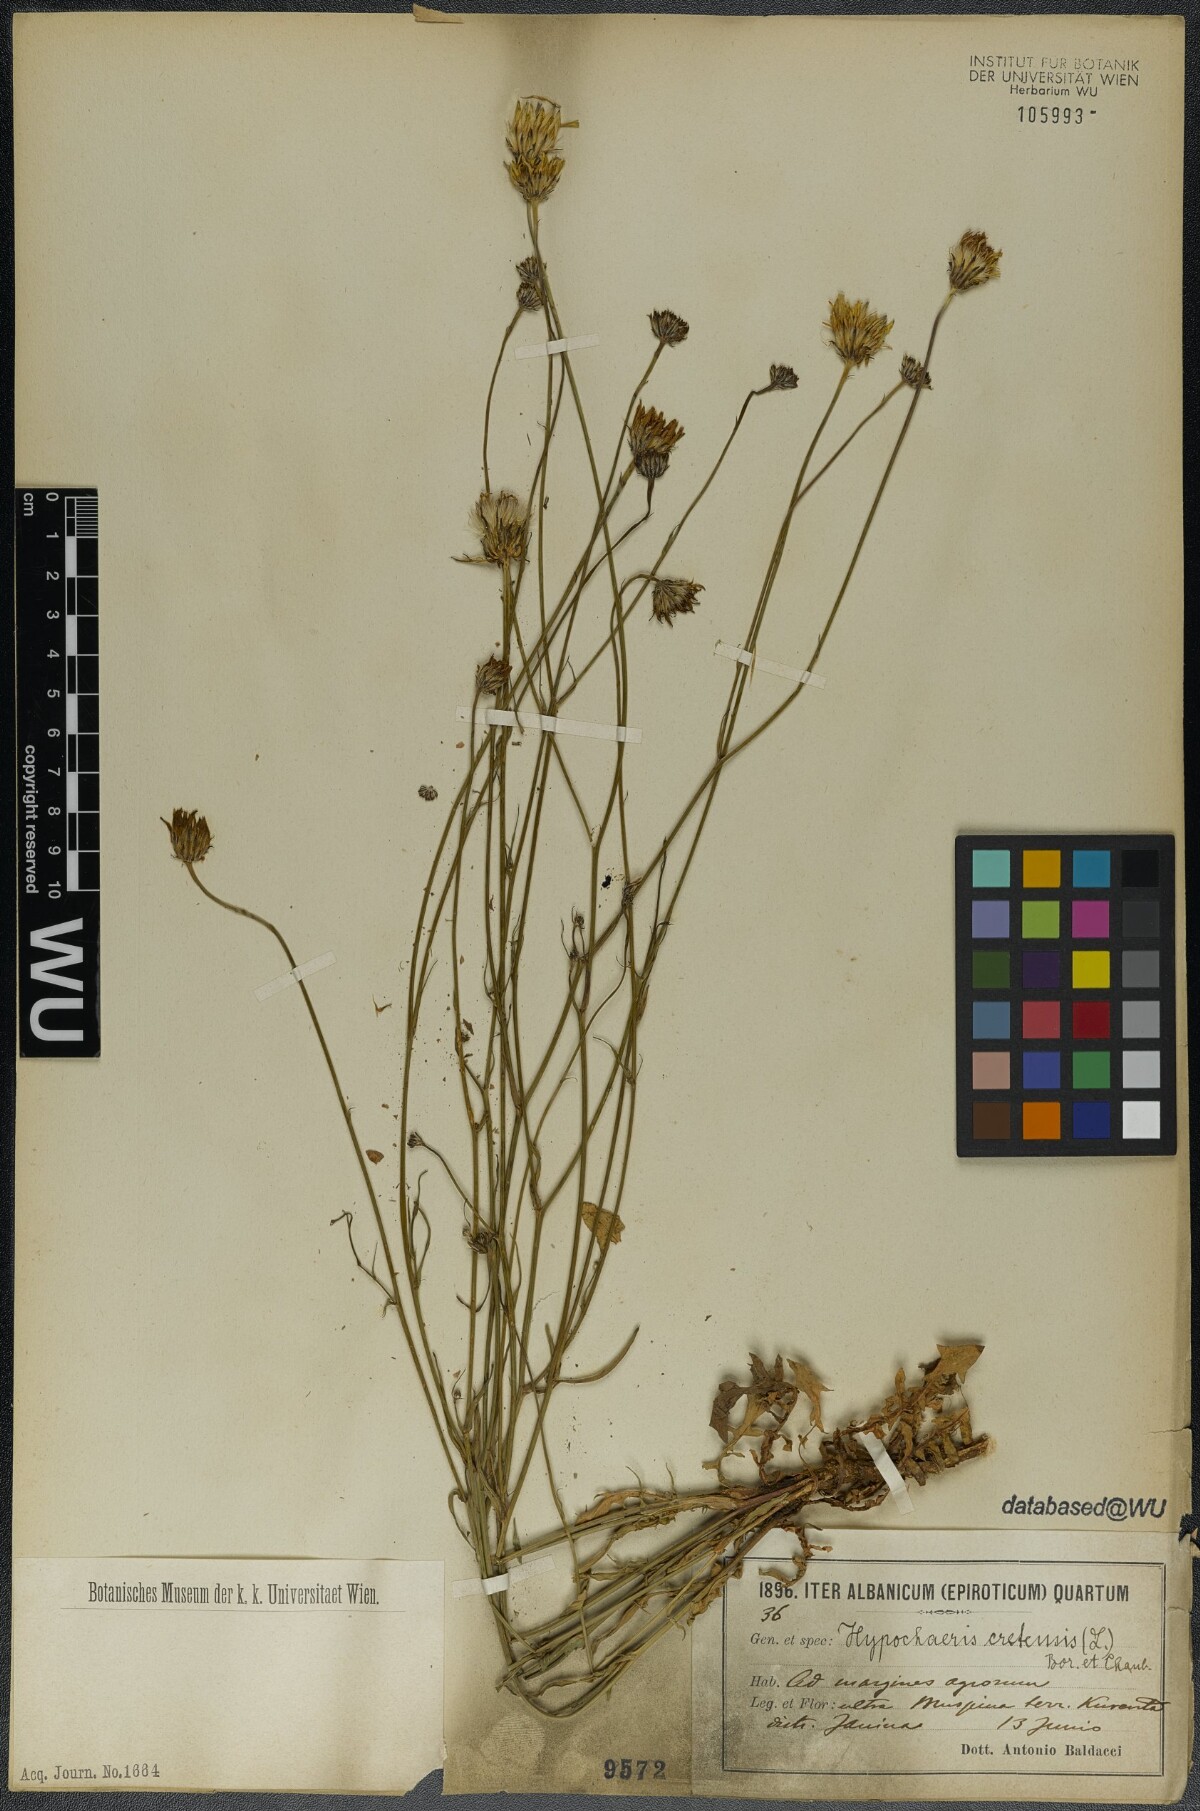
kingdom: Plantae
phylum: Tracheophyta
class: Magnoliopsida
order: Asterales
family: Asteraceae
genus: Hypochaeris
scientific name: Hypochaeris cretensis
